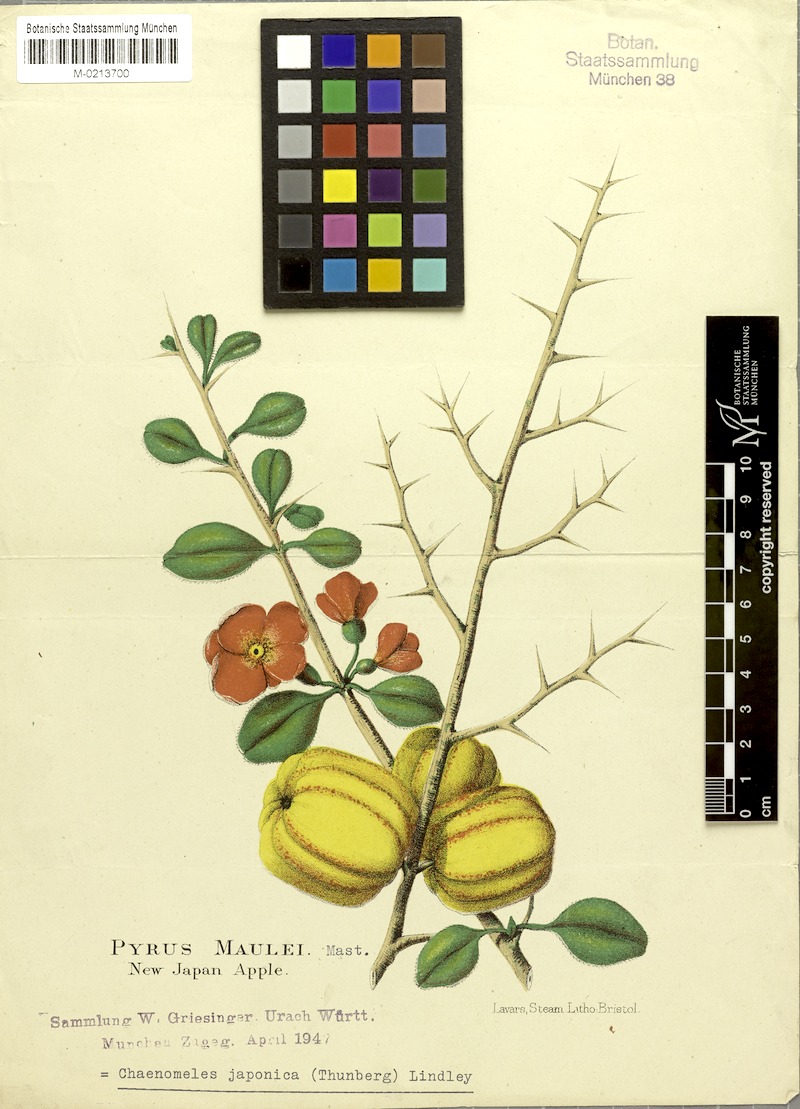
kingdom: Plantae
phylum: Tracheophyta
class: Magnoliopsida
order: Rosales
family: Rosaceae
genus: Chaenomeles
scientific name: Chaenomeles japonica
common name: Japanese quince
